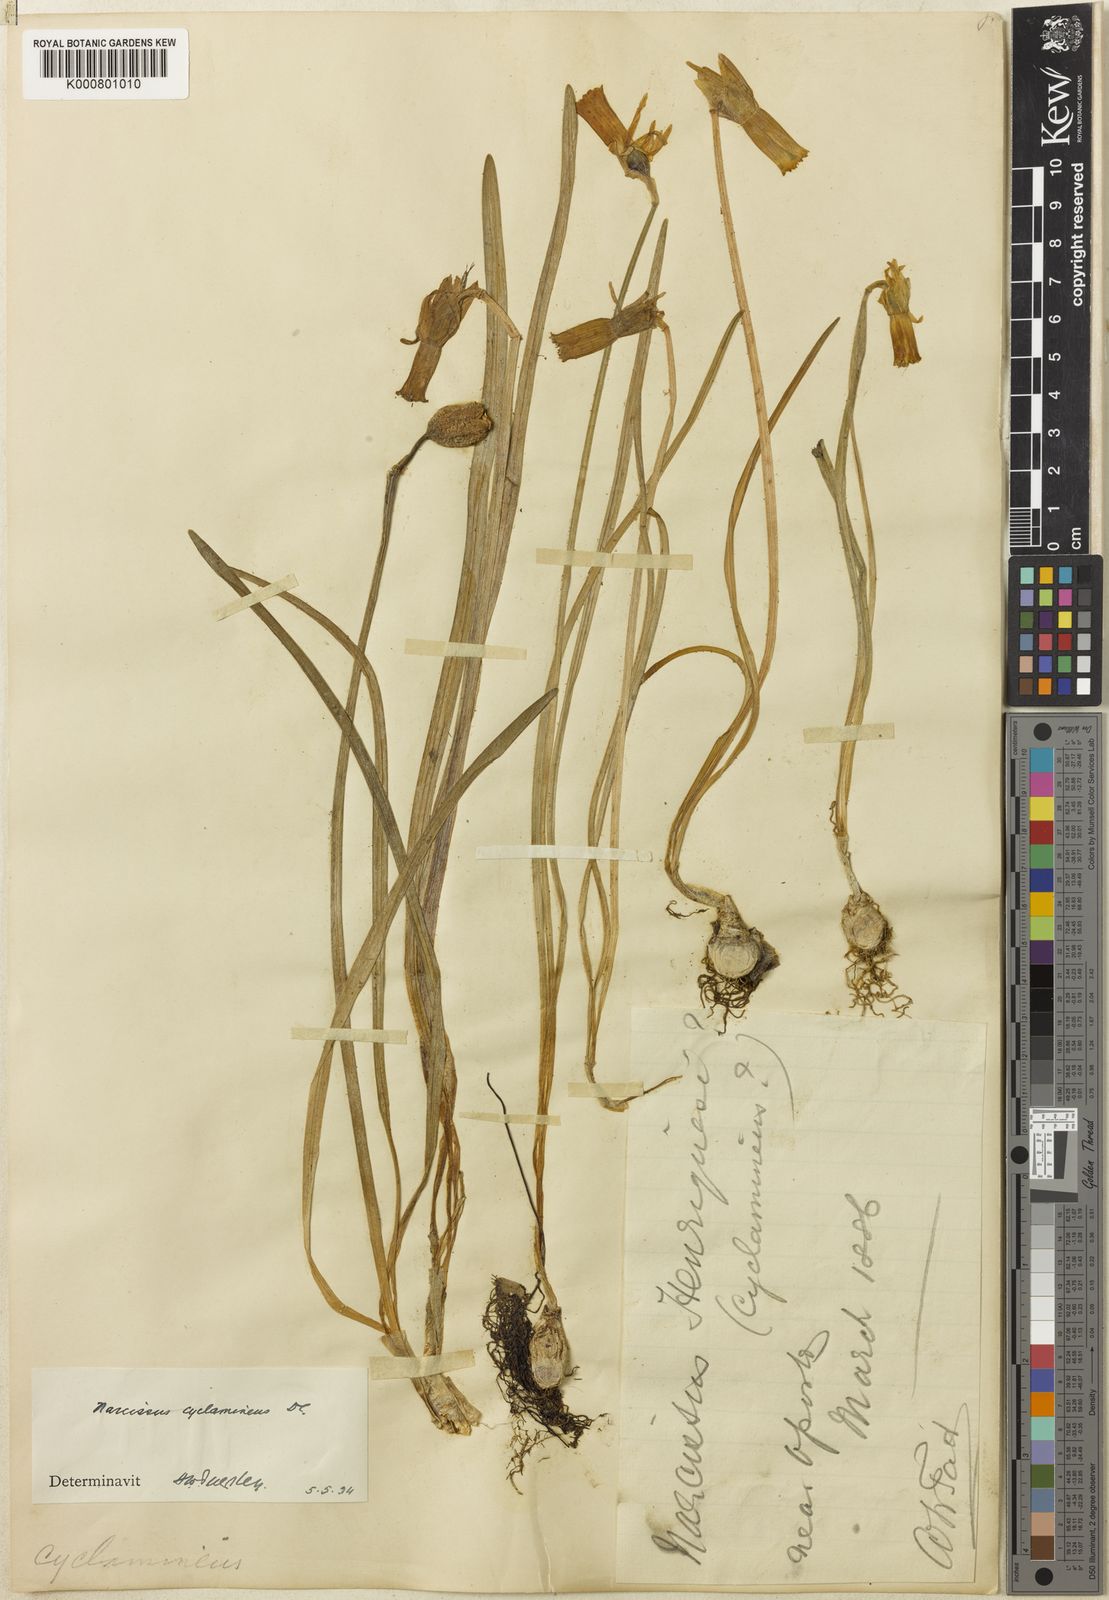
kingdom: Plantae
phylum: Tracheophyta
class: Liliopsida
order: Asparagales
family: Amaryllidaceae
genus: Narcissus
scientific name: Narcissus cyclamineus
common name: Cyclamen-flowered daffodil
